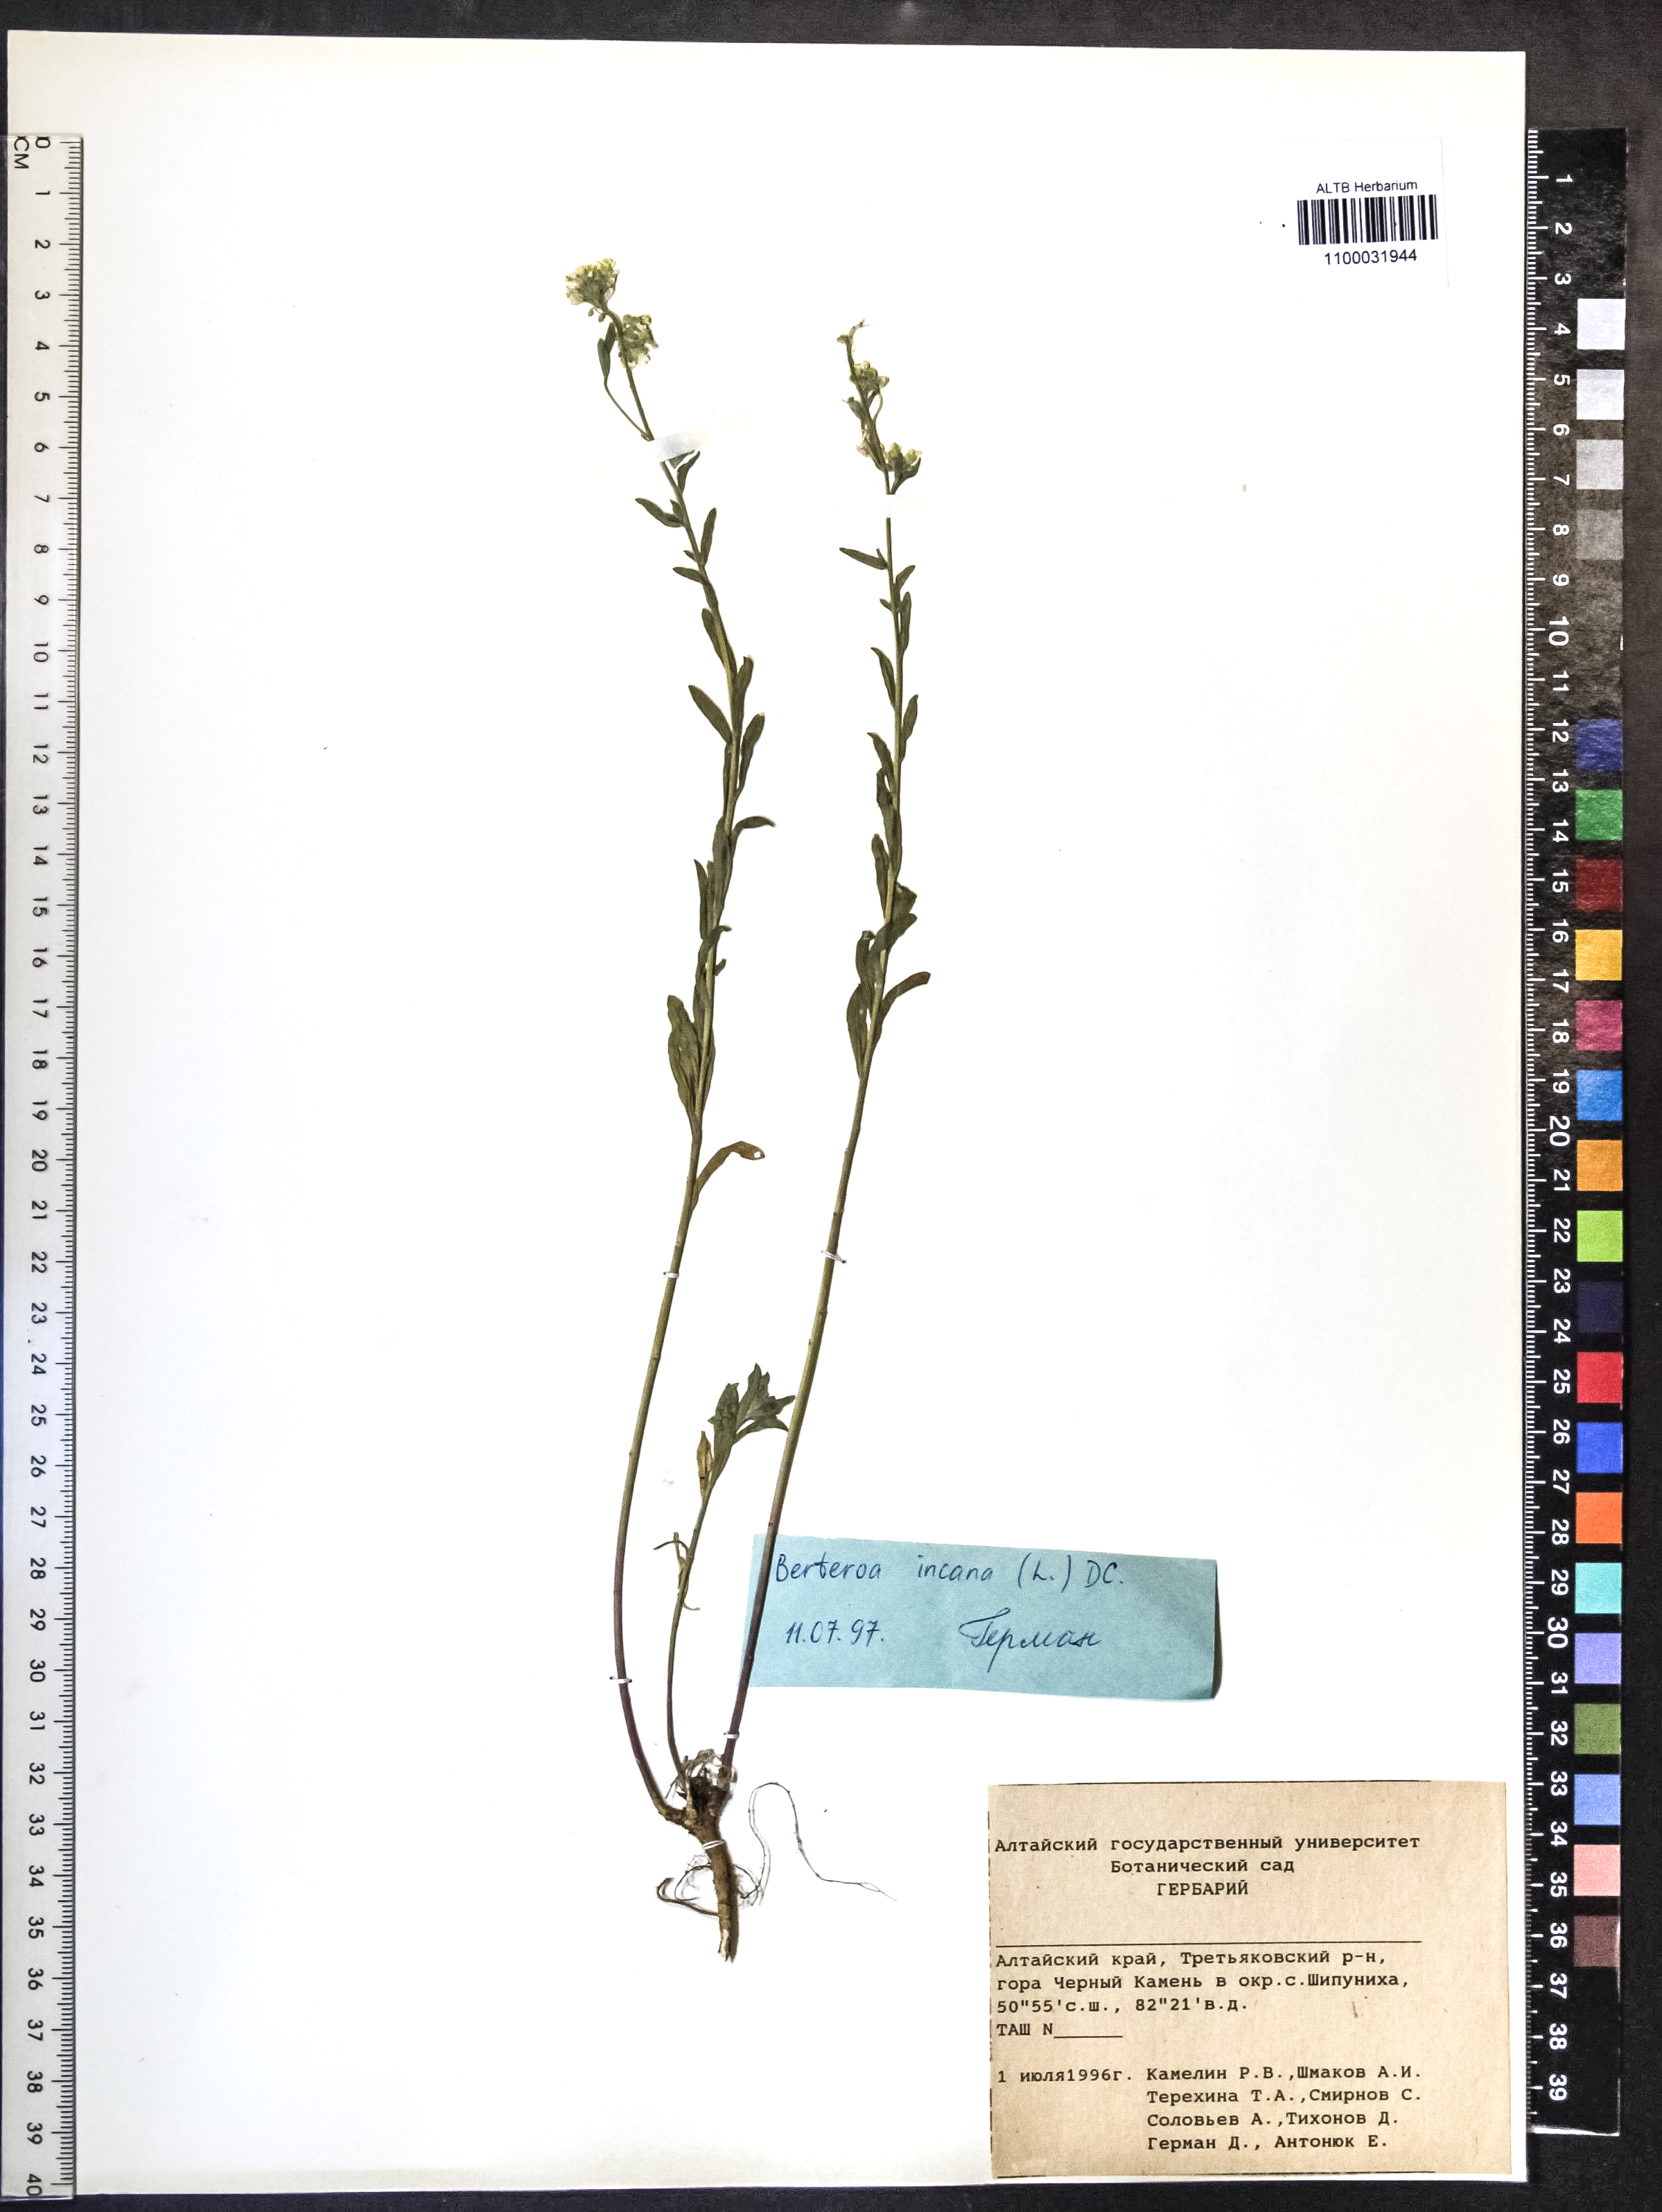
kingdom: Plantae
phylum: Tracheophyta
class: Magnoliopsida
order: Brassicales
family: Brassicaceae
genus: Berteroa
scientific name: Berteroa incana
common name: Hoary alison
